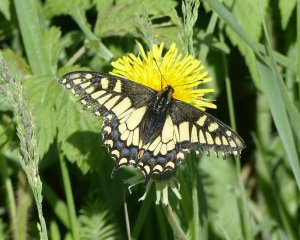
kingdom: Animalia
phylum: Arthropoda
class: Insecta
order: Lepidoptera
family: Papilionidae
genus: Papilio
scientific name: Papilio machaon
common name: Old World Swallowtail
